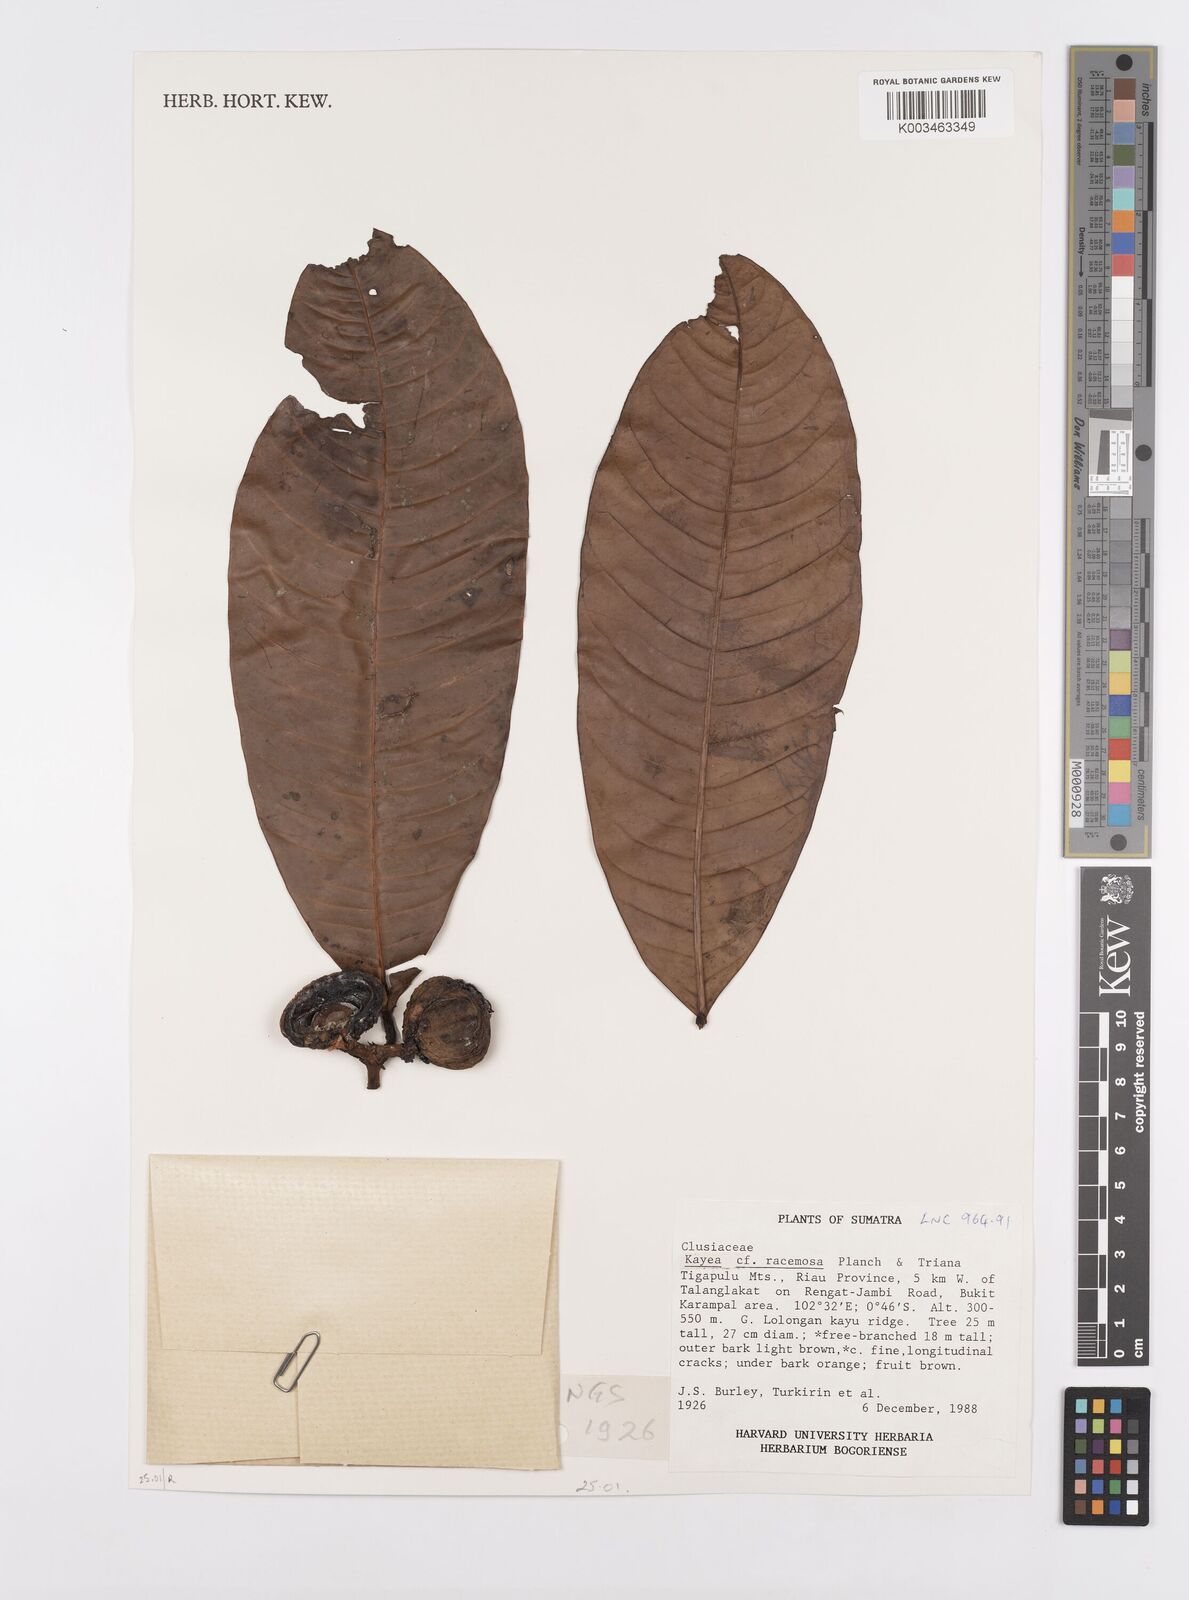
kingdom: Plantae
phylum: Tracheophyta
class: Magnoliopsida
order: Malpighiales
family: Calophyllaceae
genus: Kayea
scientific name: Kayea racemosa
